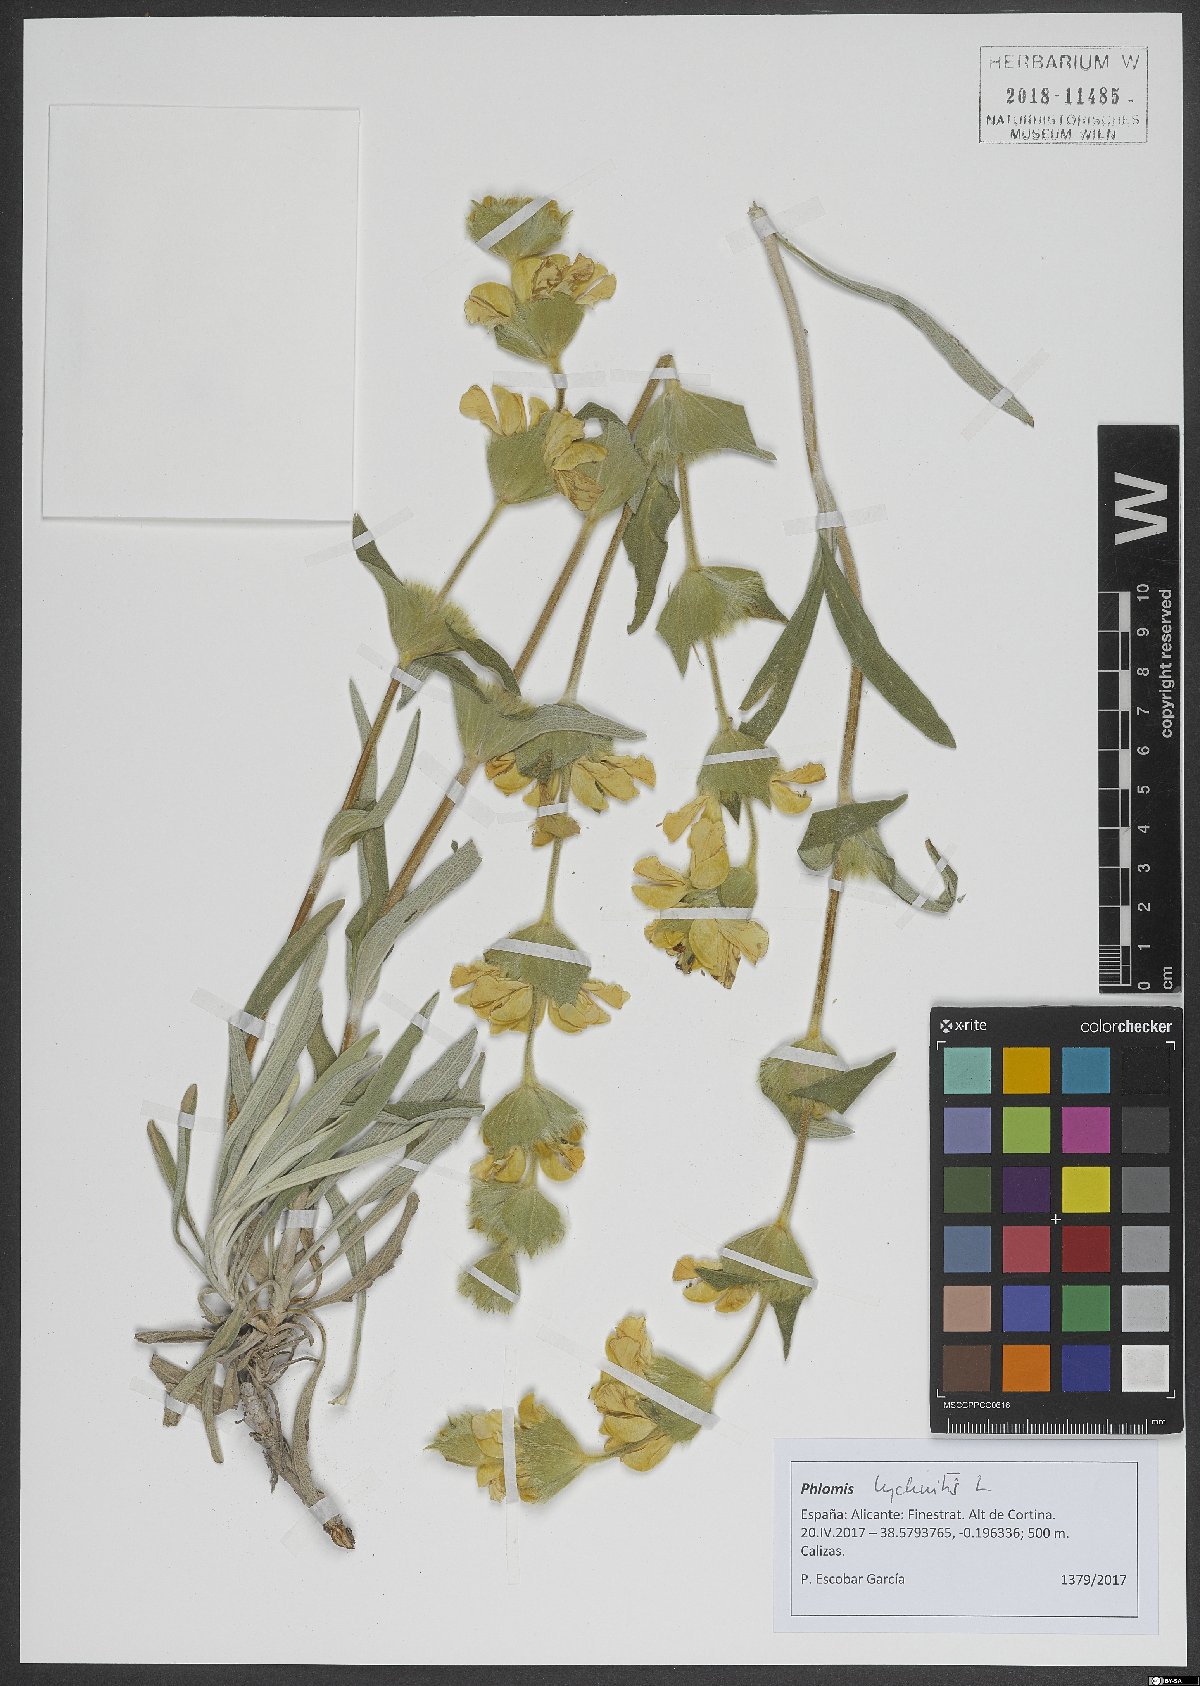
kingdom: Plantae
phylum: Tracheophyta
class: Magnoliopsida
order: Lamiales
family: Lamiaceae
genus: Phlomis
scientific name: Phlomis lychnitis
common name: Lampwickplant
